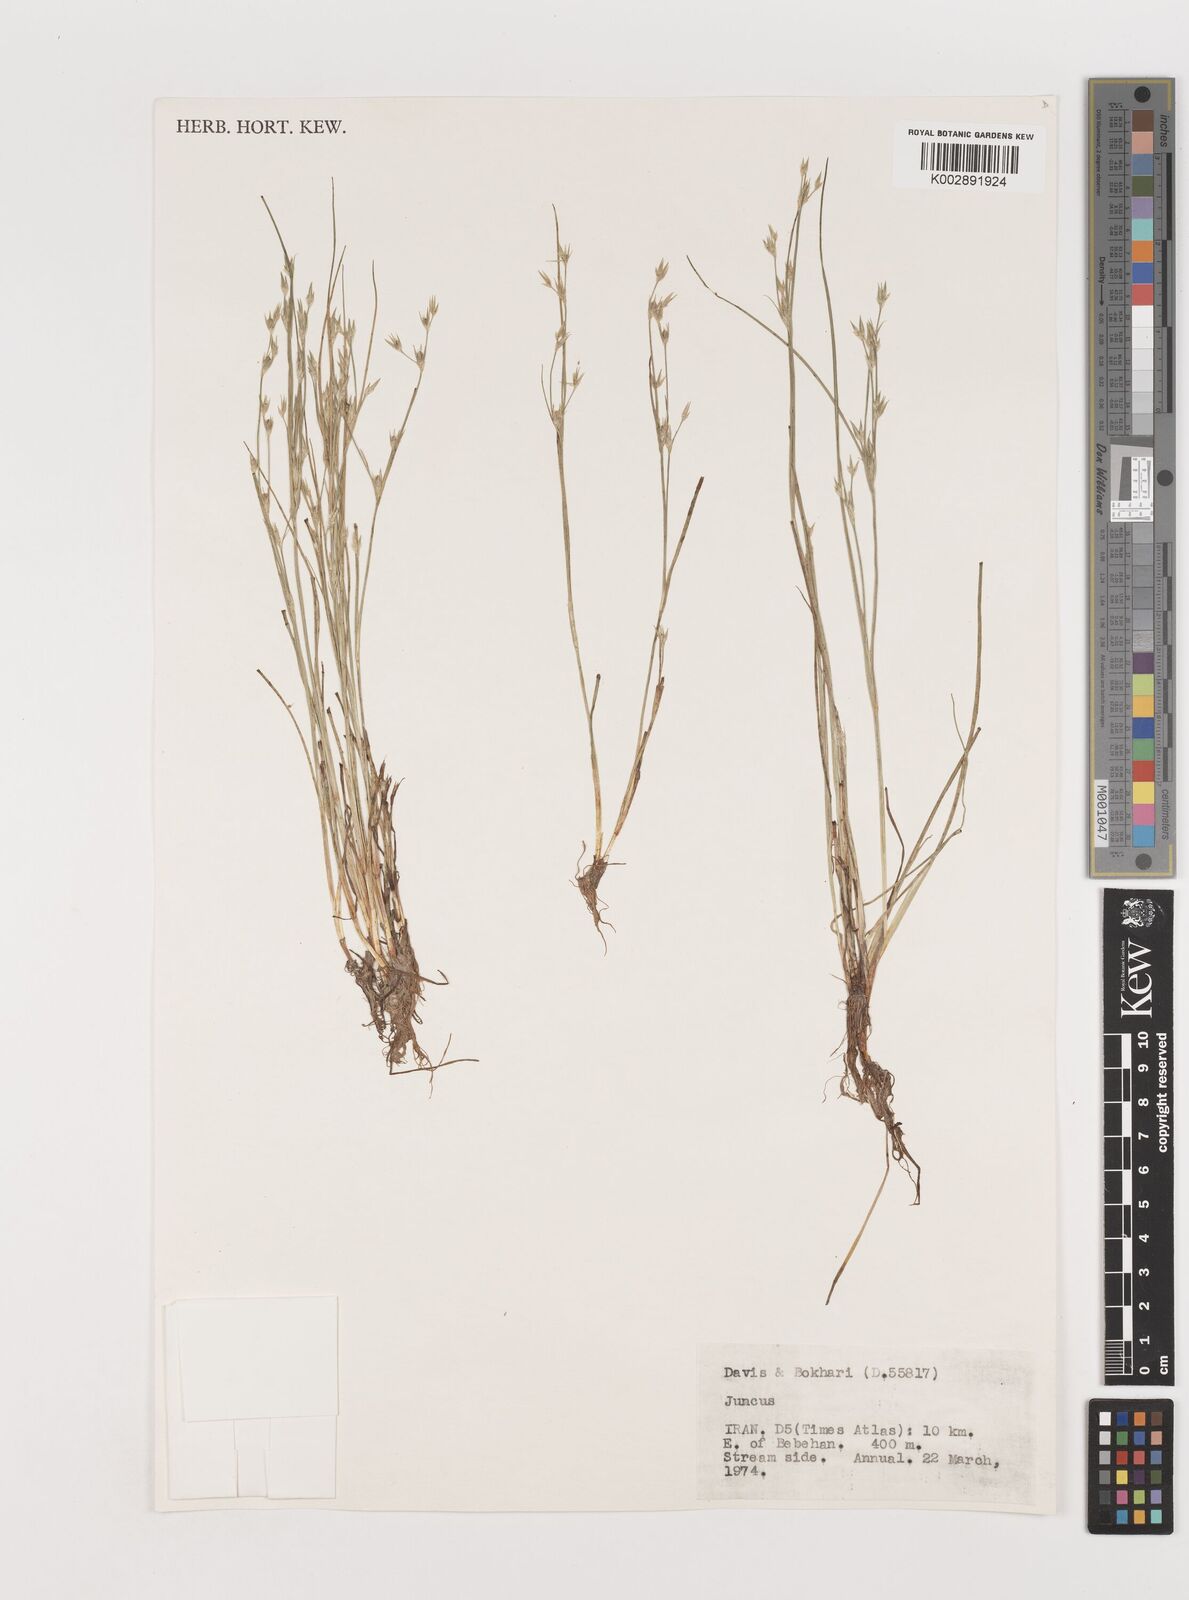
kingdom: Plantae
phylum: Tracheophyta
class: Liliopsida
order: Poales
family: Juncaceae
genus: Juncus
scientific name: Juncus
